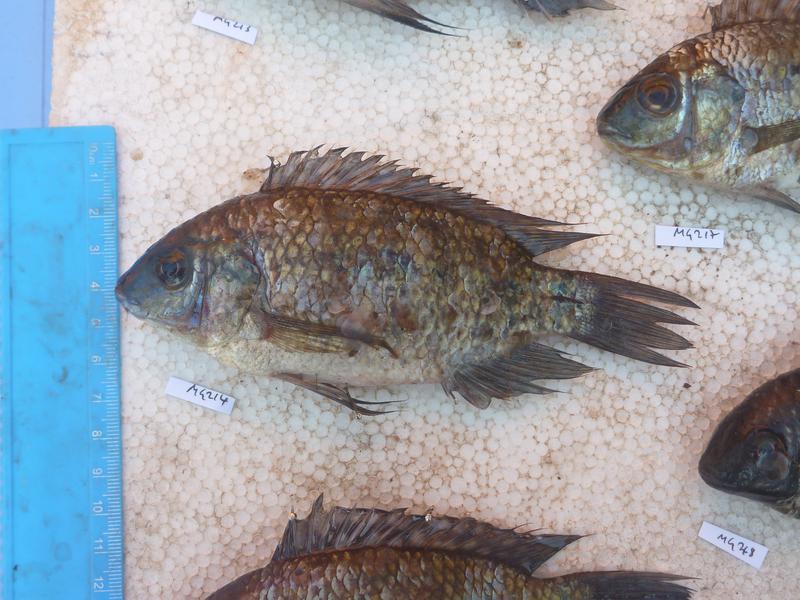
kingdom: Animalia
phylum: Chordata
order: Perciformes
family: Cichlidae
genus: Oreochromis
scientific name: Oreochromis leucostictus
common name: Blue spotted tilapia
